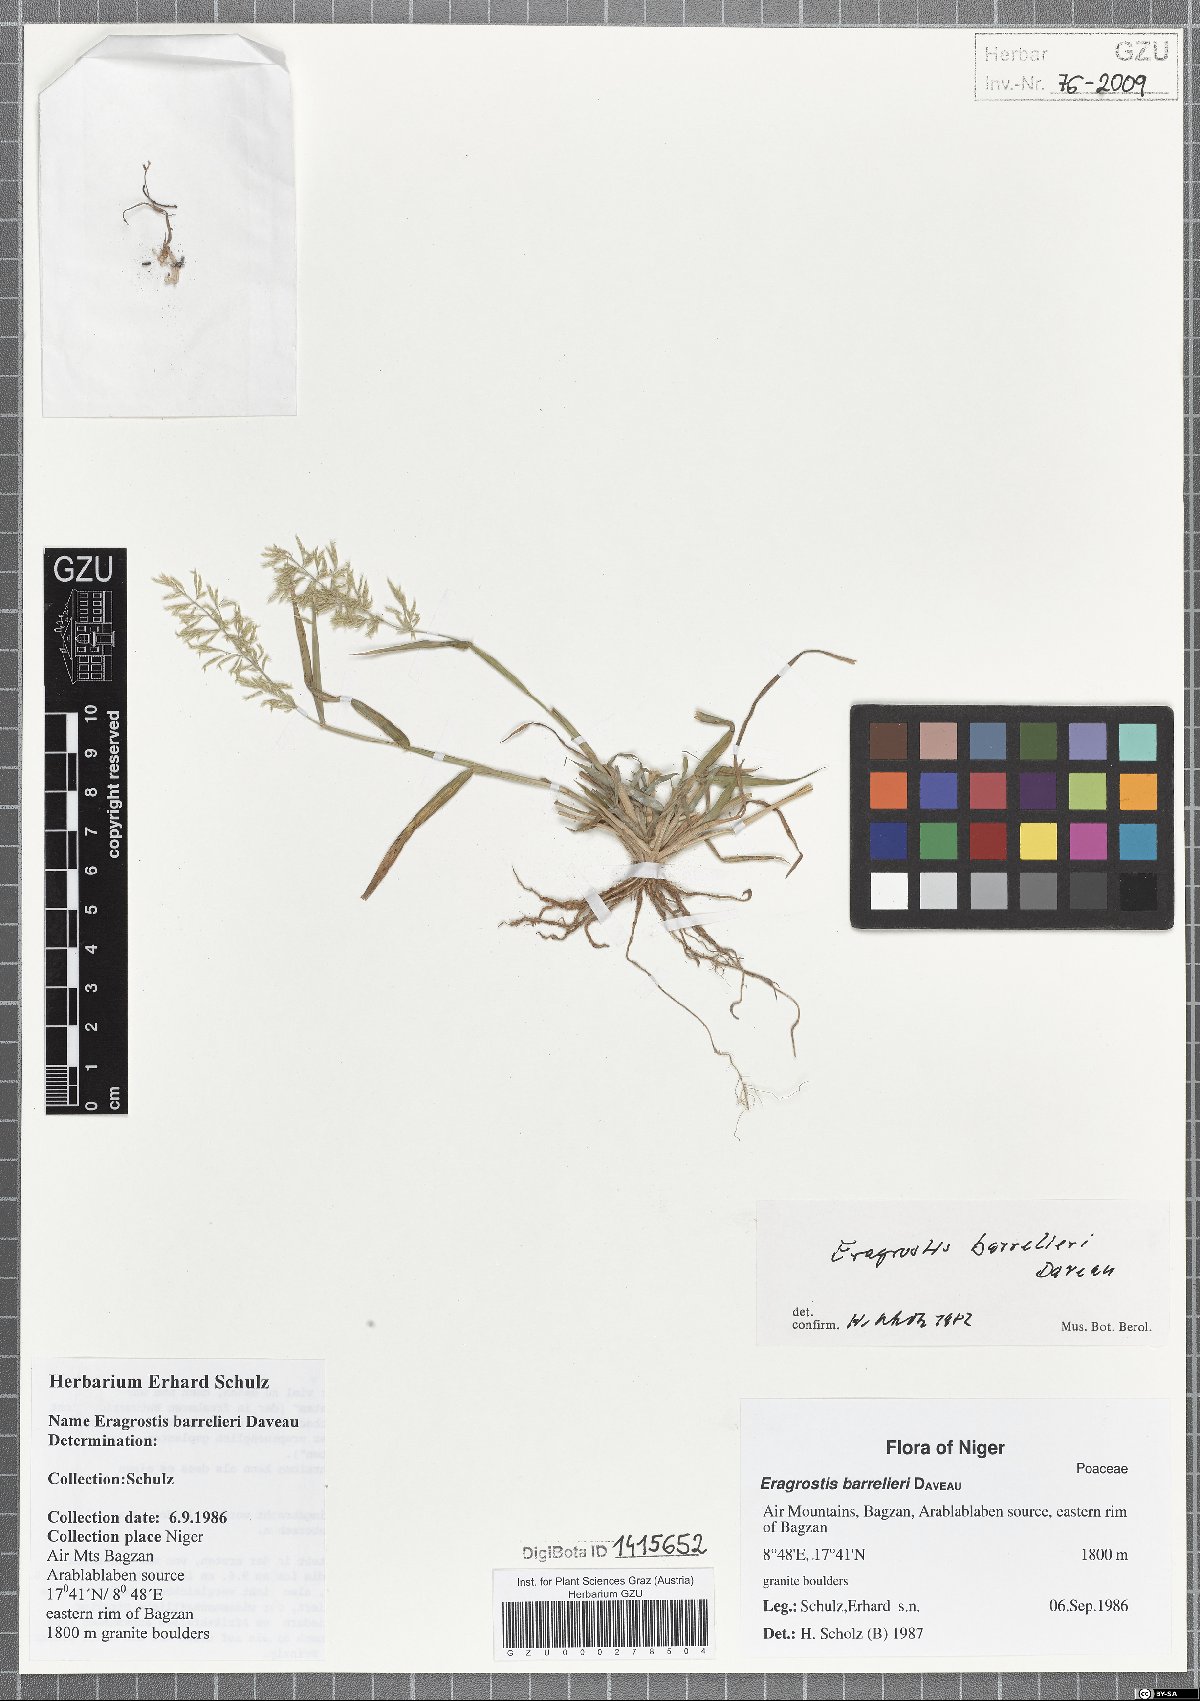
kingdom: Plantae
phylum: Tracheophyta
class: Liliopsida
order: Poales
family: Poaceae
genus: Eragrostis
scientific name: Eragrostis barrelieri
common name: Mediterranean lovegrass
